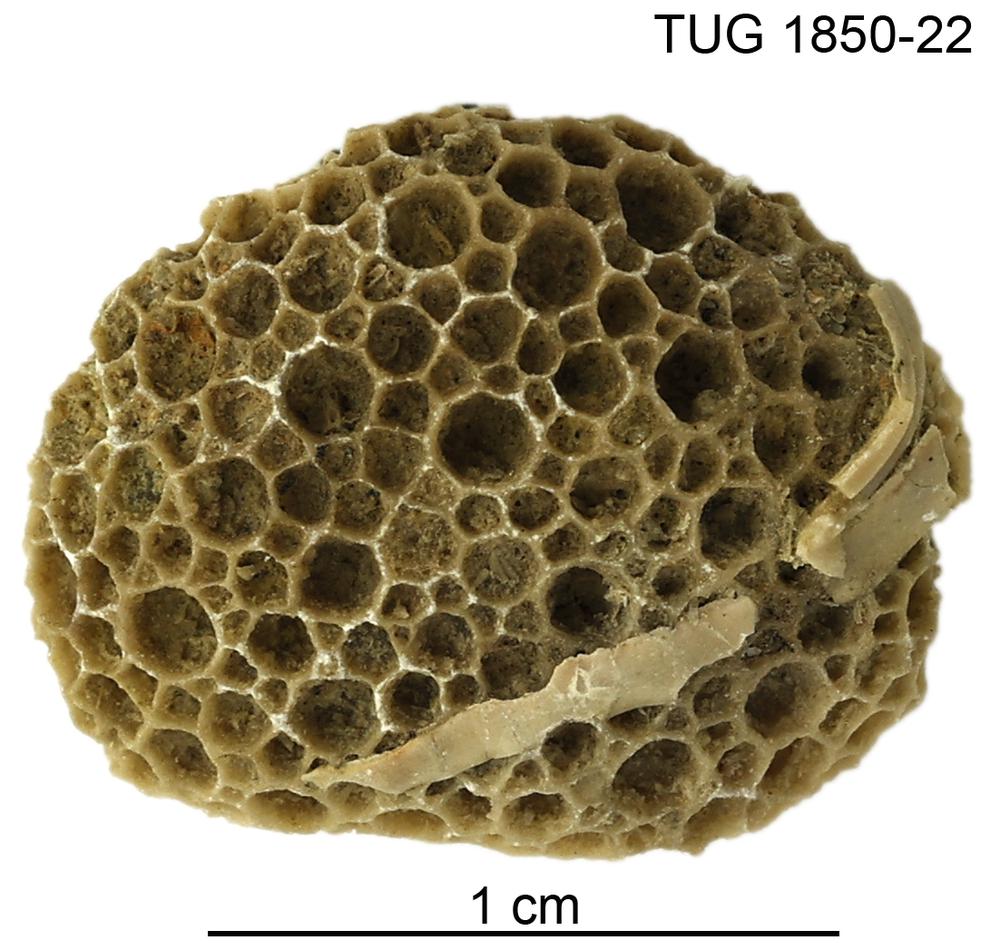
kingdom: Animalia
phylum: Cnidaria
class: Anthozoa
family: Favositidae
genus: Favosites
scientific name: Favosites
